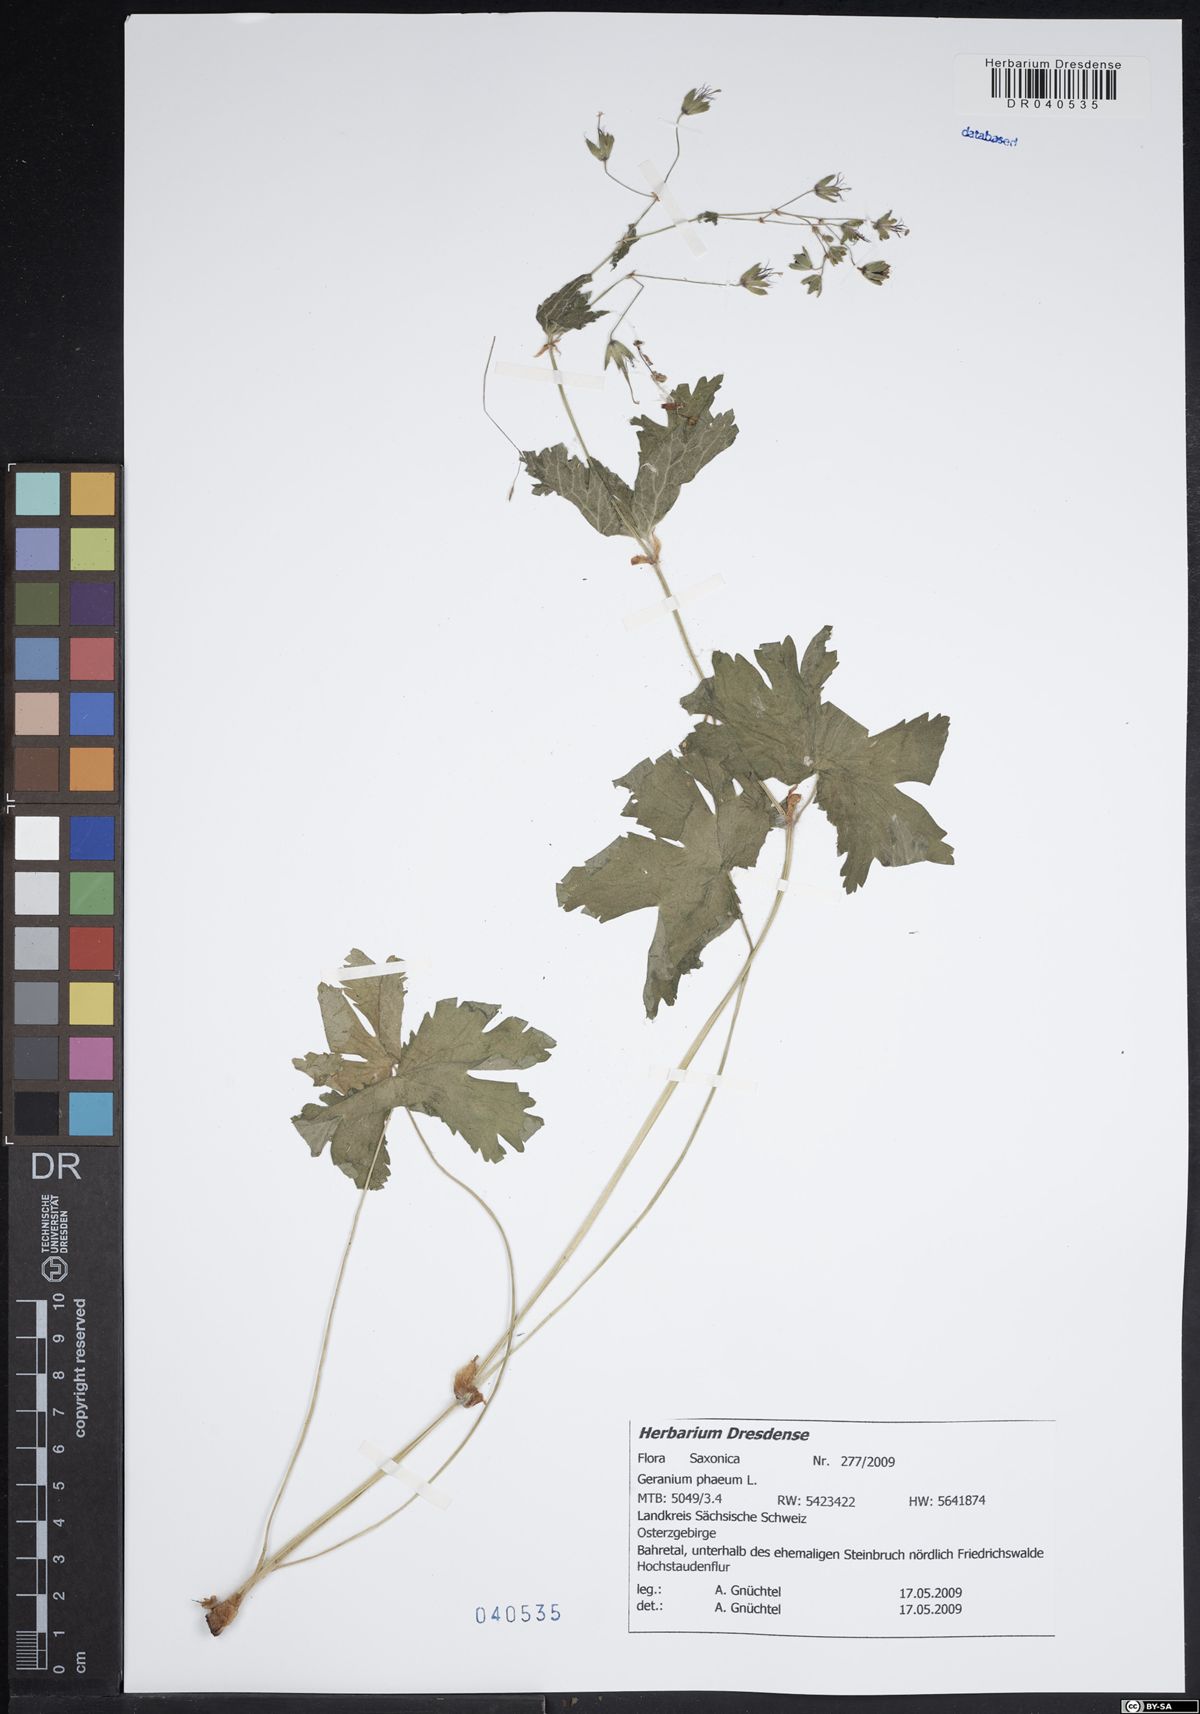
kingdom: Plantae
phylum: Tracheophyta
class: Magnoliopsida
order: Geraniales
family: Geraniaceae
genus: Geranium
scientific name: Geranium phaeum
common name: Dusky crane's-bill
